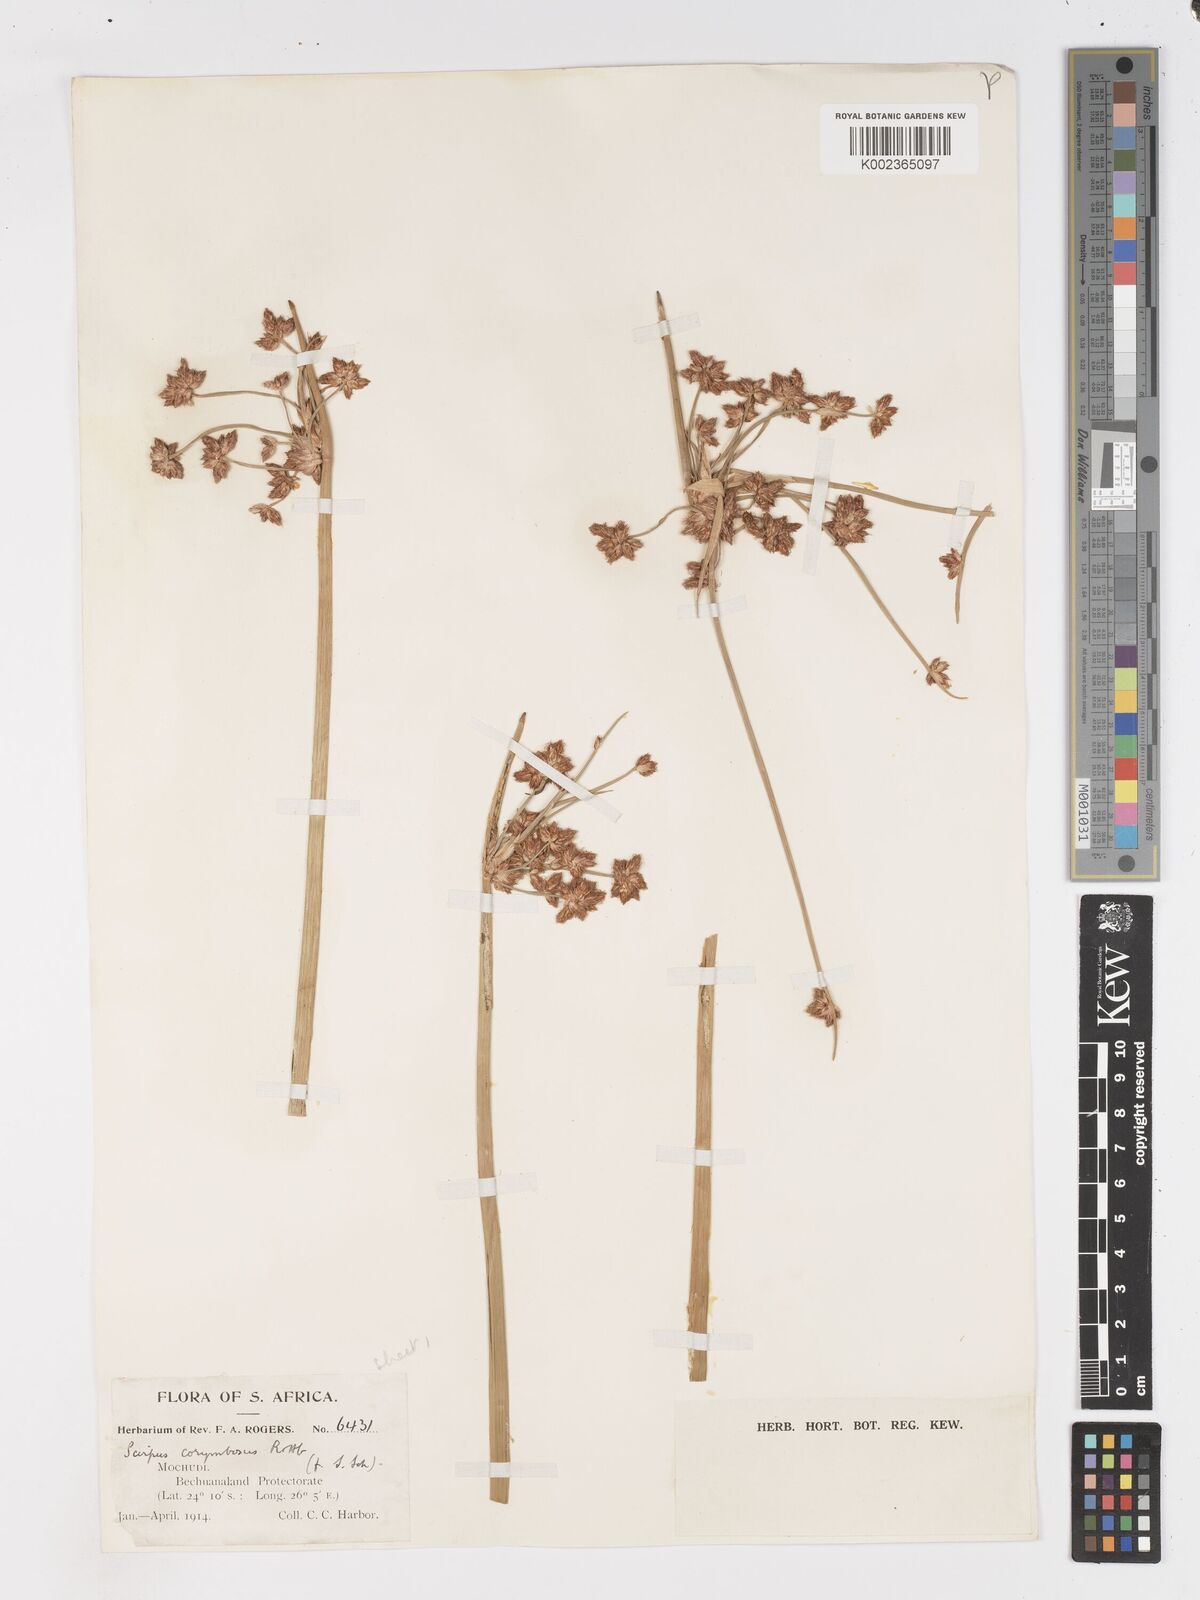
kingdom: Plantae
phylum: Tracheophyta
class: Liliopsida
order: Poales
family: Cyperaceae
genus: Schoenoplectiella
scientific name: Schoenoplectiella corymbosa
